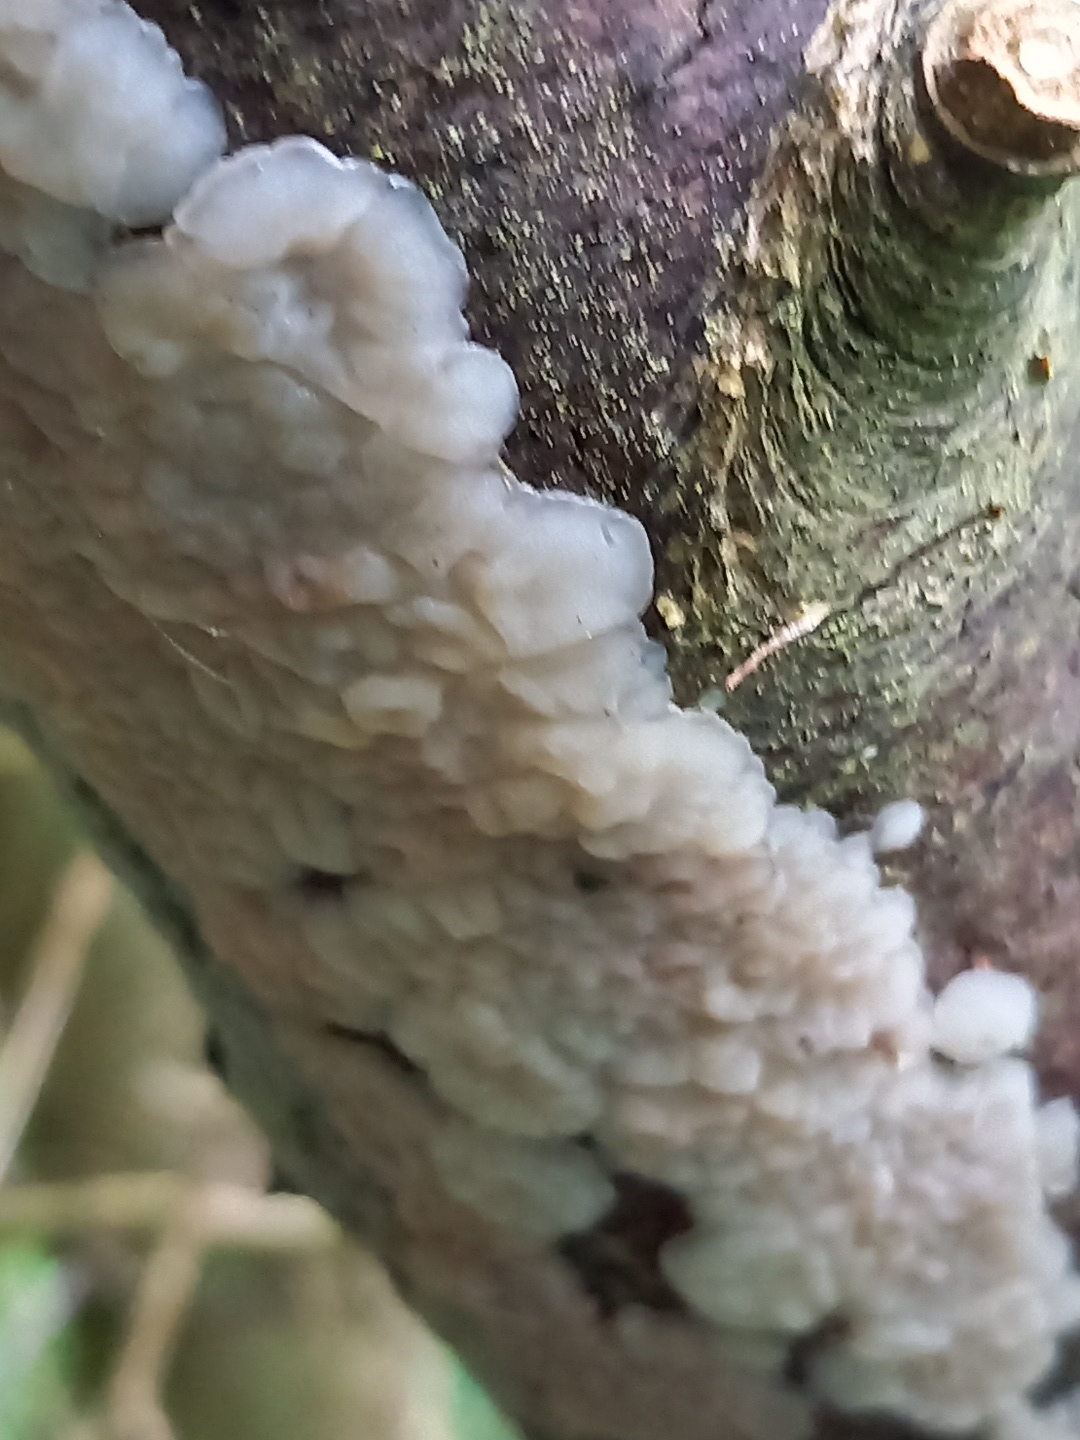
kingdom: Fungi
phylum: Basidiomycota
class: Agaricomycetes
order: Auriculariales
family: Auriculariaceae
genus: Exidia
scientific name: Exidia thuretiana
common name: hvidlig bævretop
